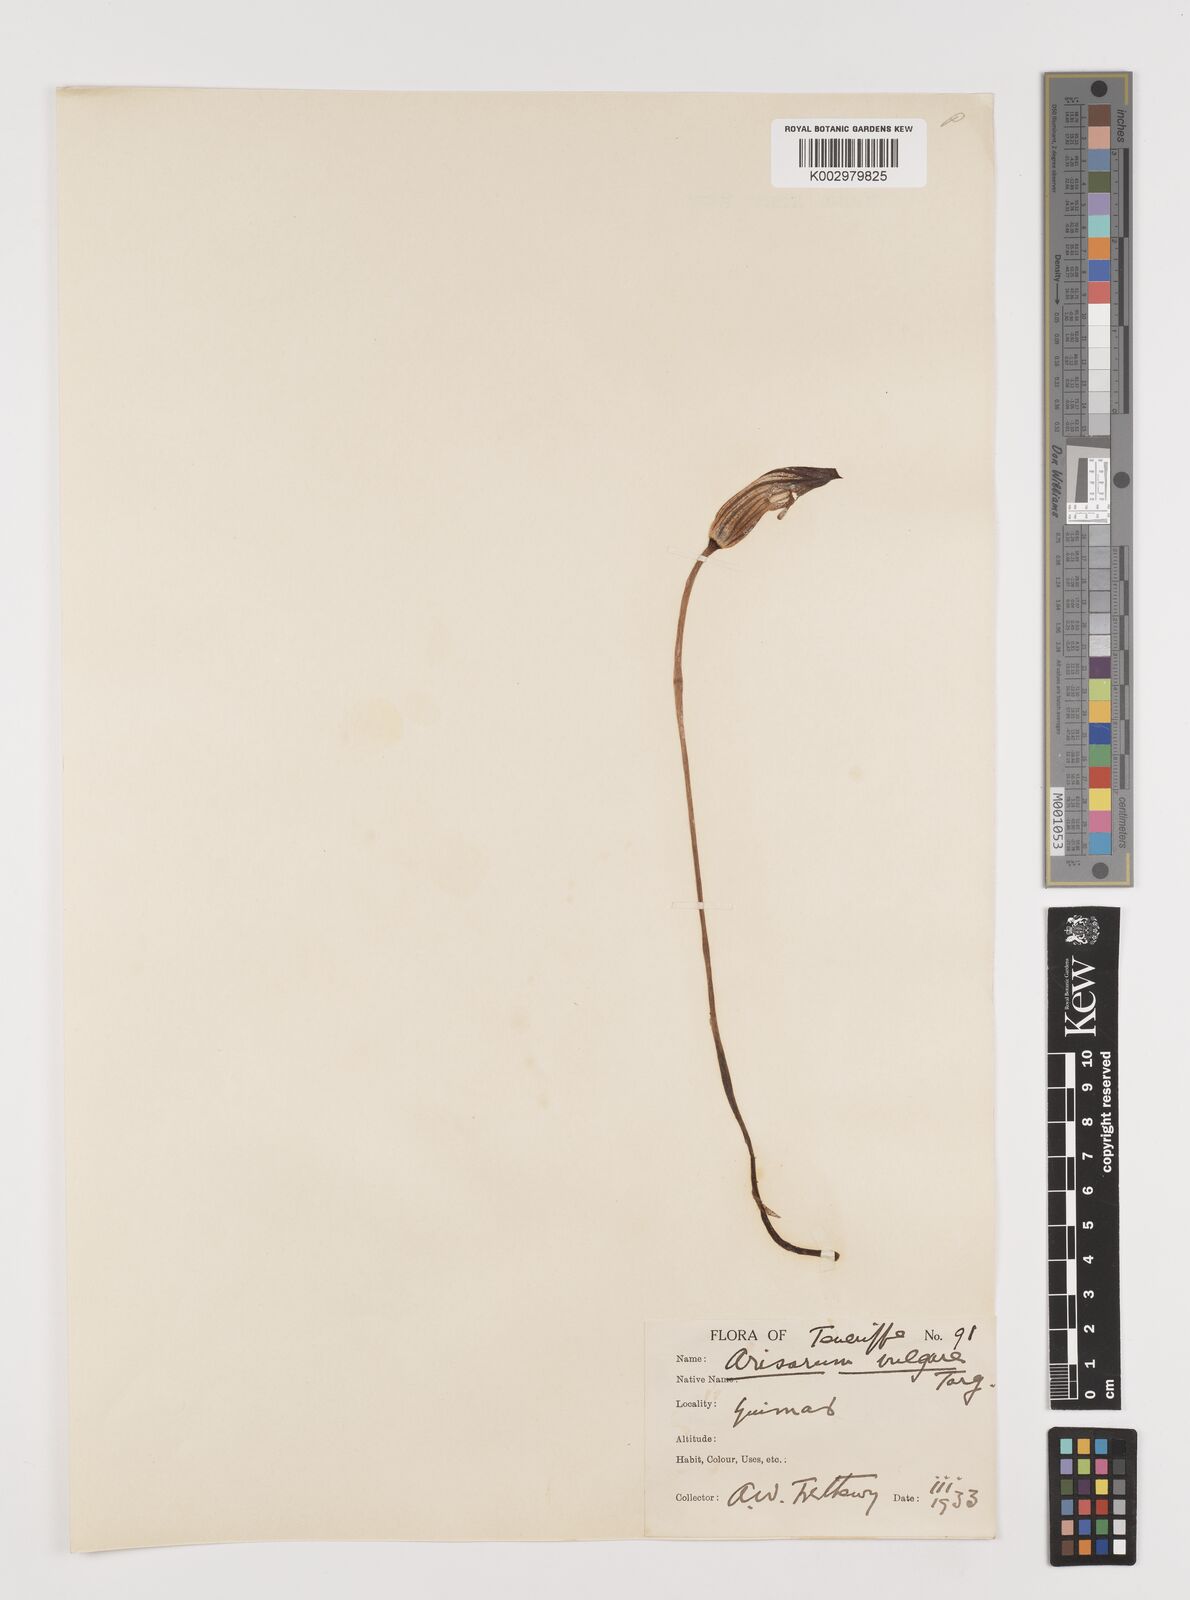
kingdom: Plantae
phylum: Tracheophyta
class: Liliopsida
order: Alismatales
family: Araceae
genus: Arisarum
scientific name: Arisarum vulgare
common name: Common arisarum
